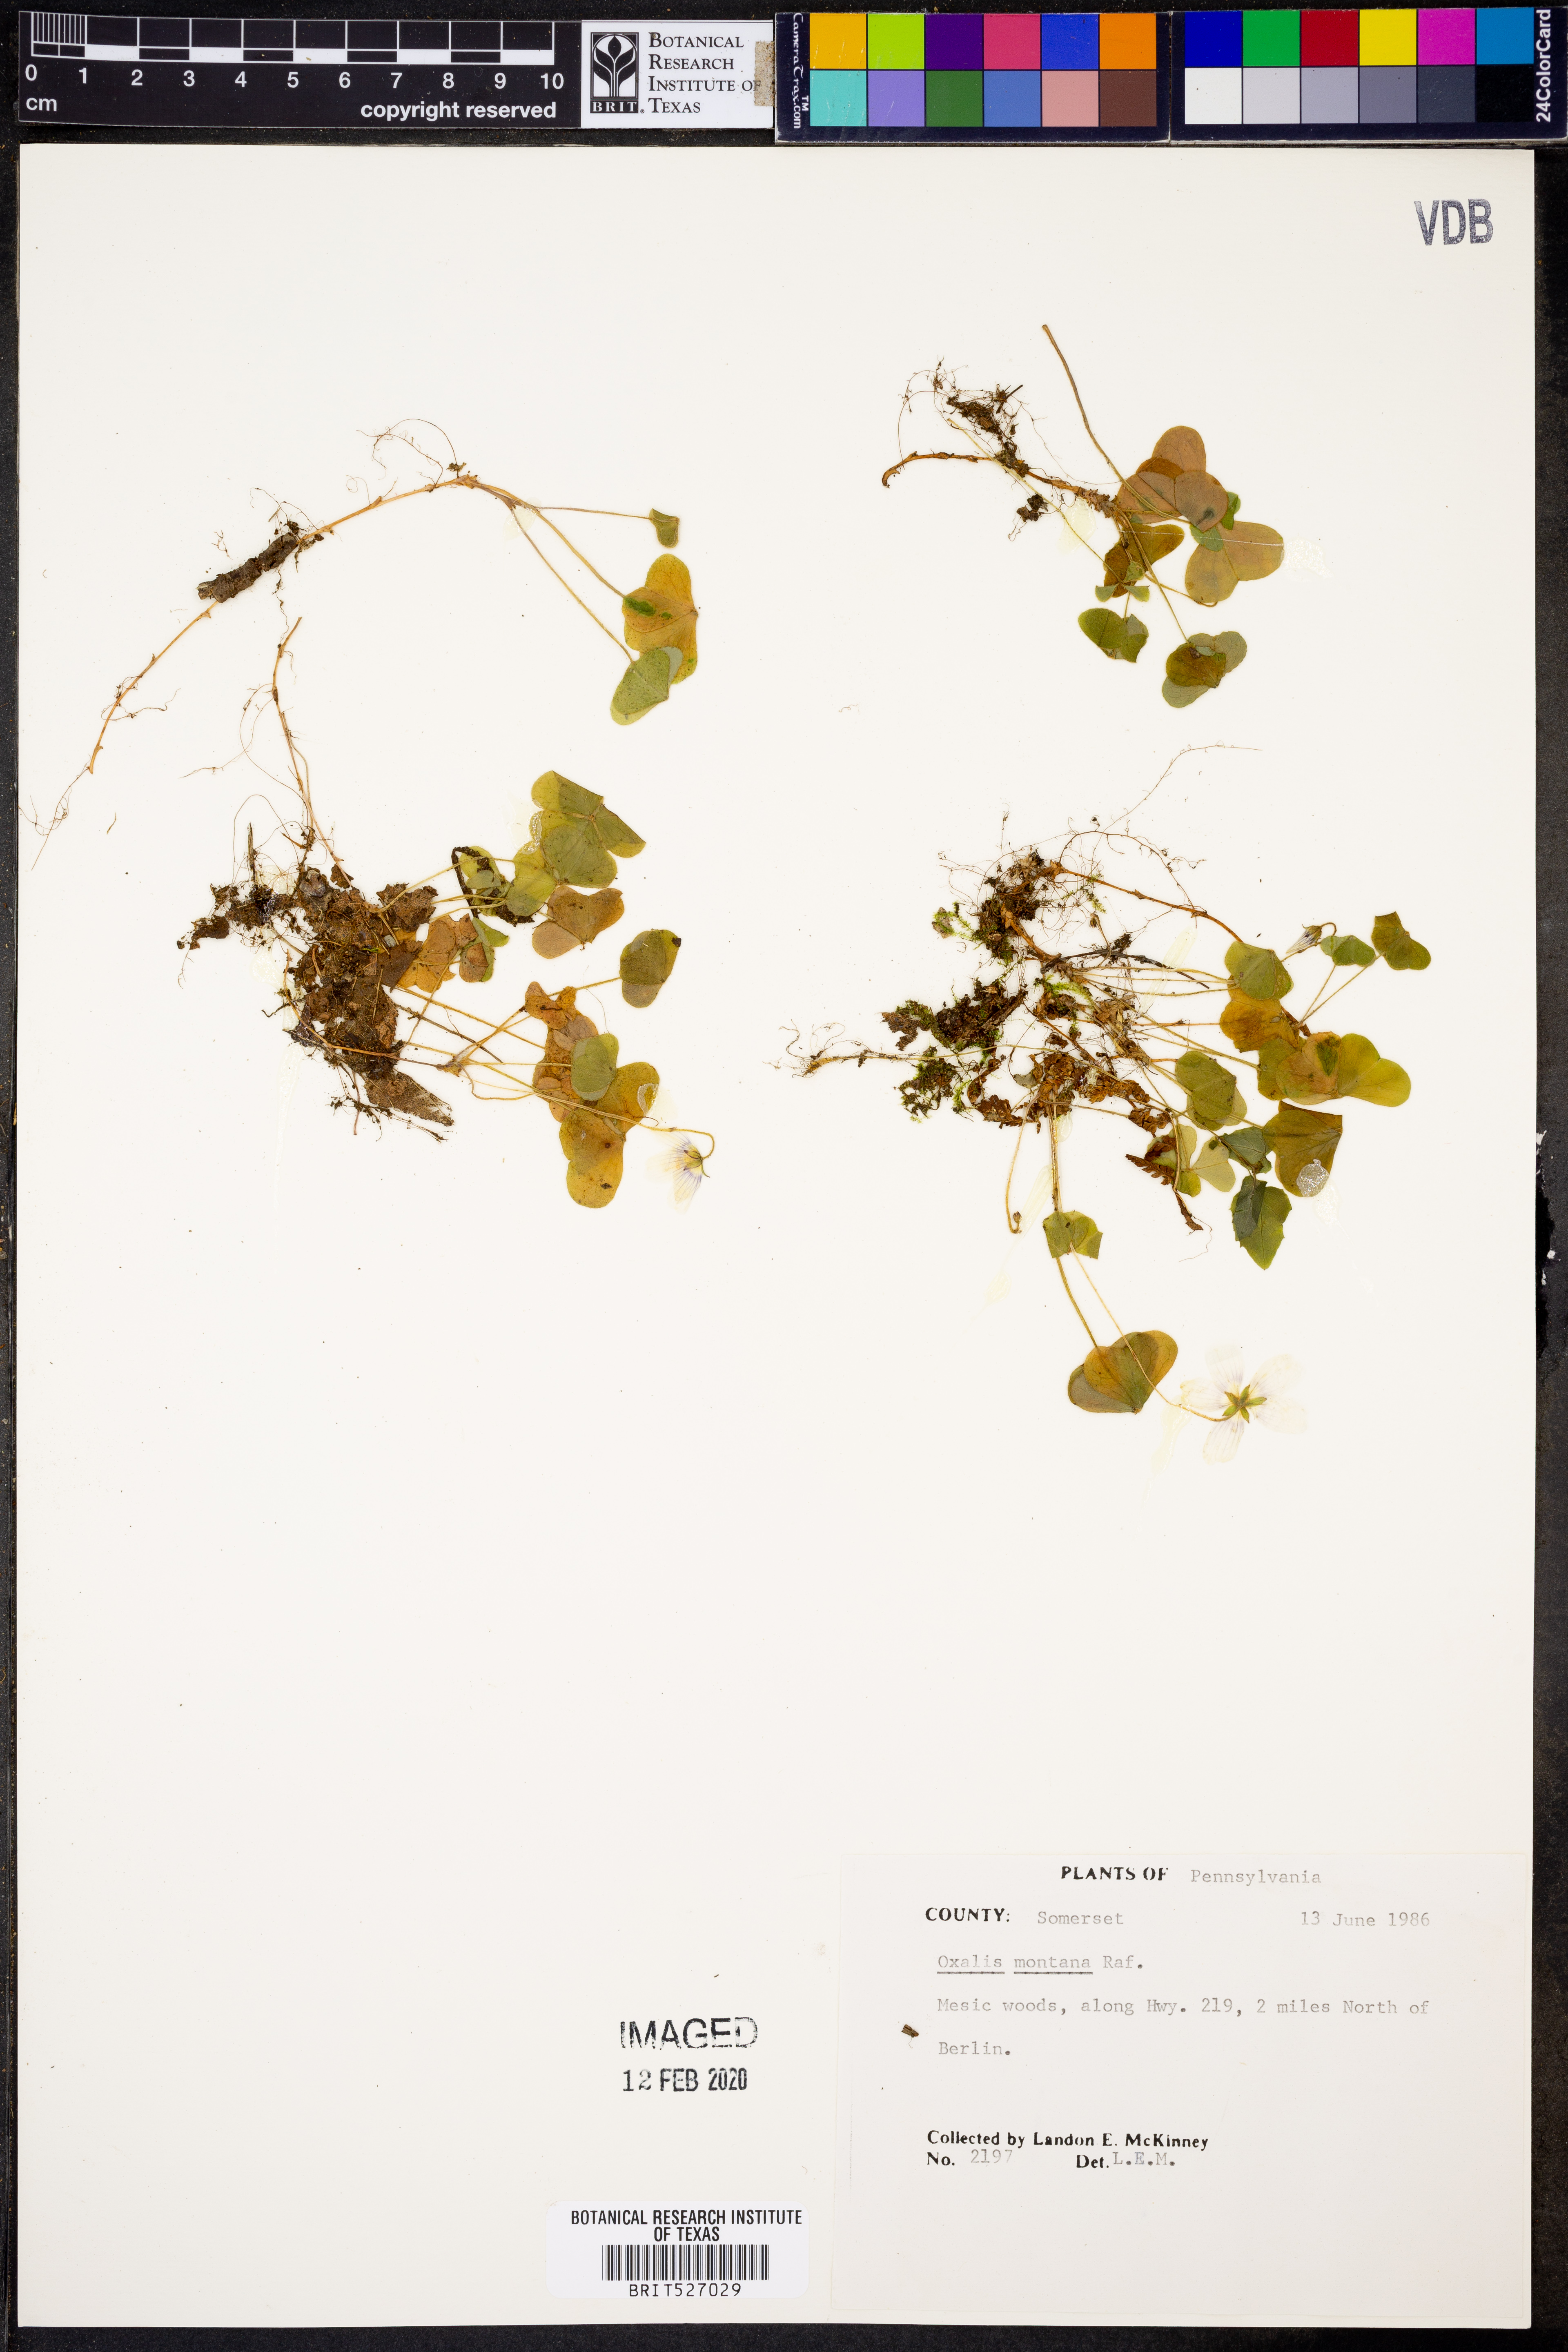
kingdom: Plantae
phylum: Tracheophyta
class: Magnoliopsida
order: Oxalidales
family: Oxalidaceae
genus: Oxalis
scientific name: Oxalis montana
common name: American wood-sorrel
